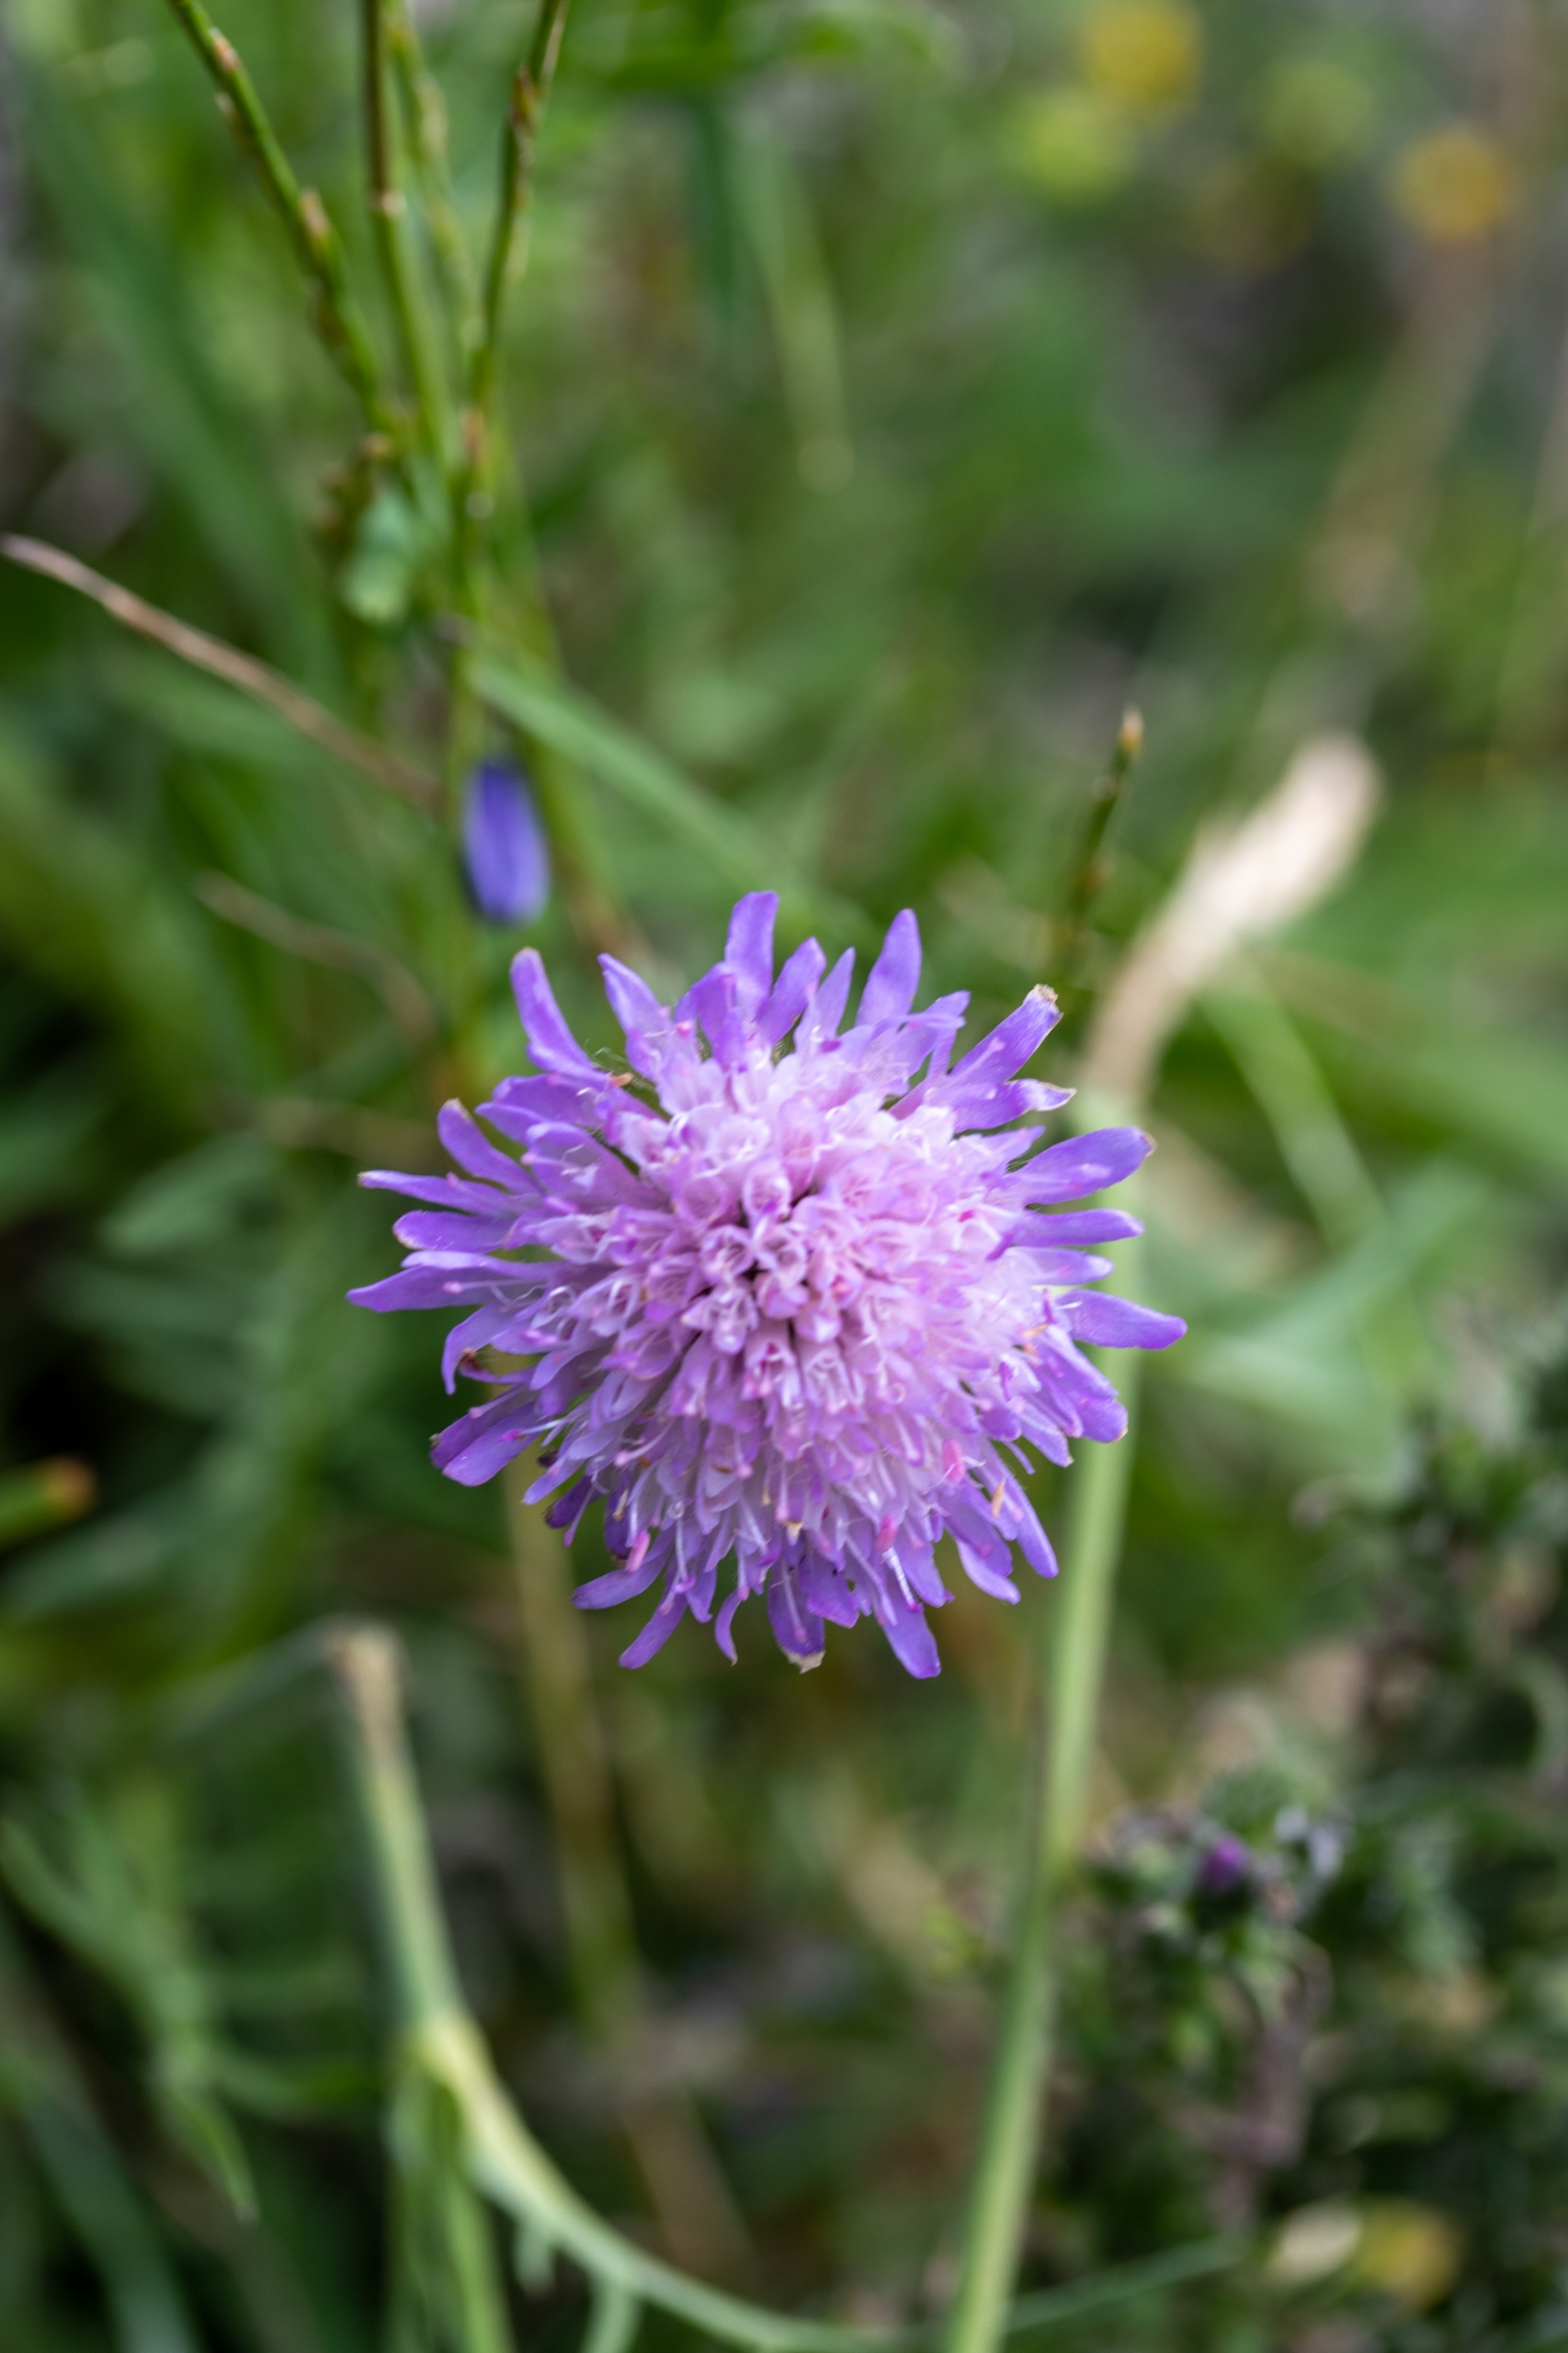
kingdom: Plantae
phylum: Tracheophyta
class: Magnoliopsida
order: Dipsacales
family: Caprifoliaceae
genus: Knautia
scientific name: Knautia arvensis
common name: Blåhat
